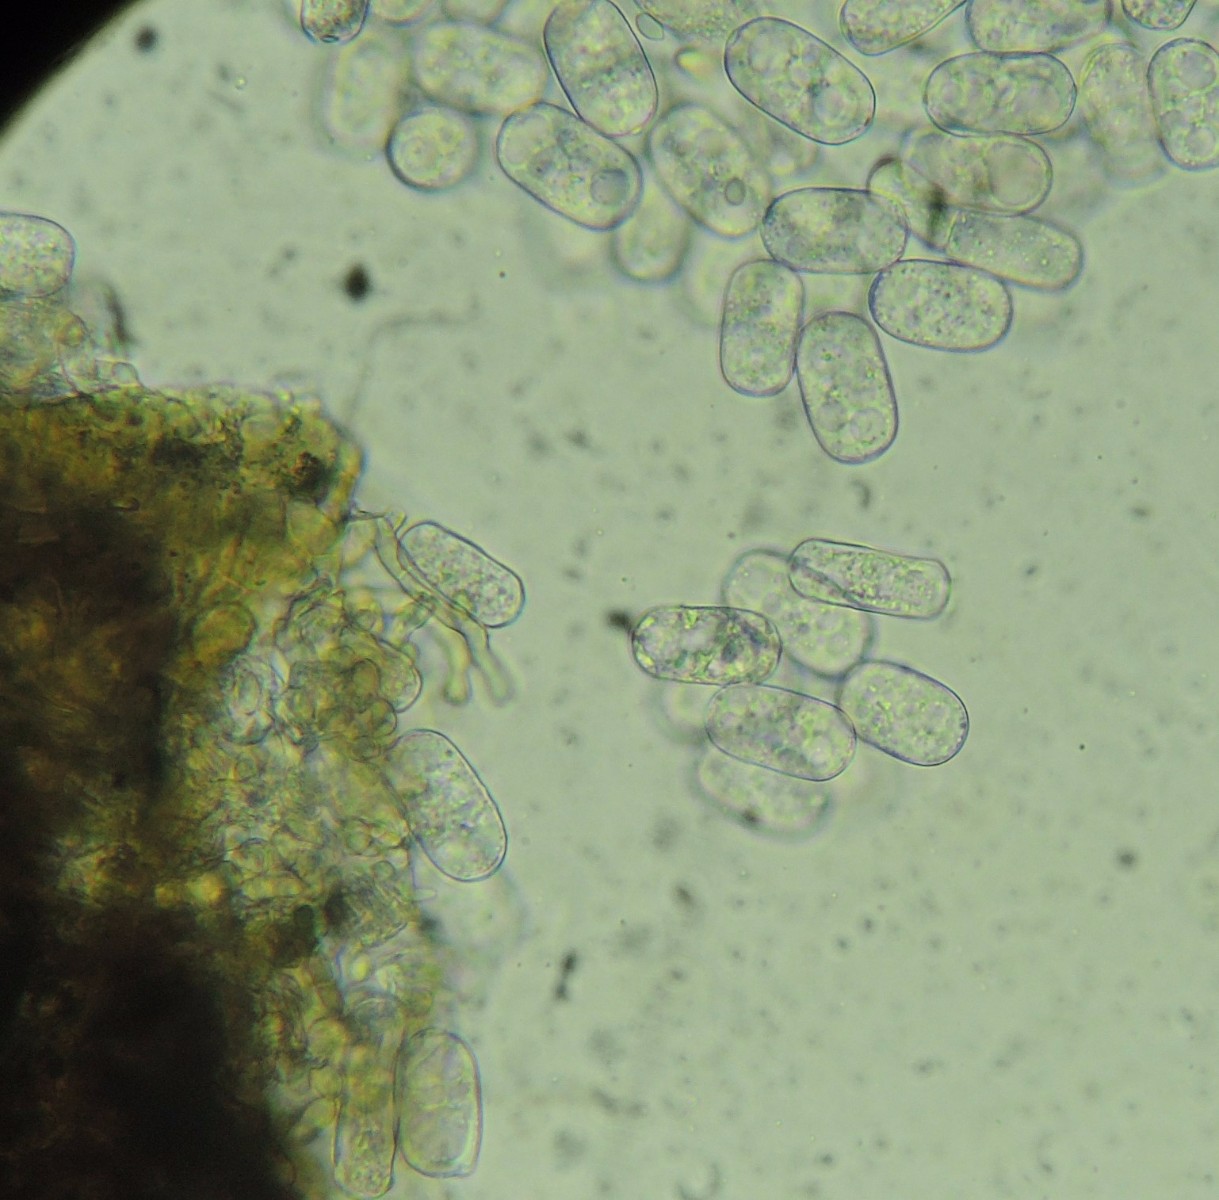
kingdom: Fungi
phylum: Ascomycota
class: Leotiomycetes
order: Helotiales
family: Erysiphaceae
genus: Erysiphe
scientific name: Erysiphe mougeotii
